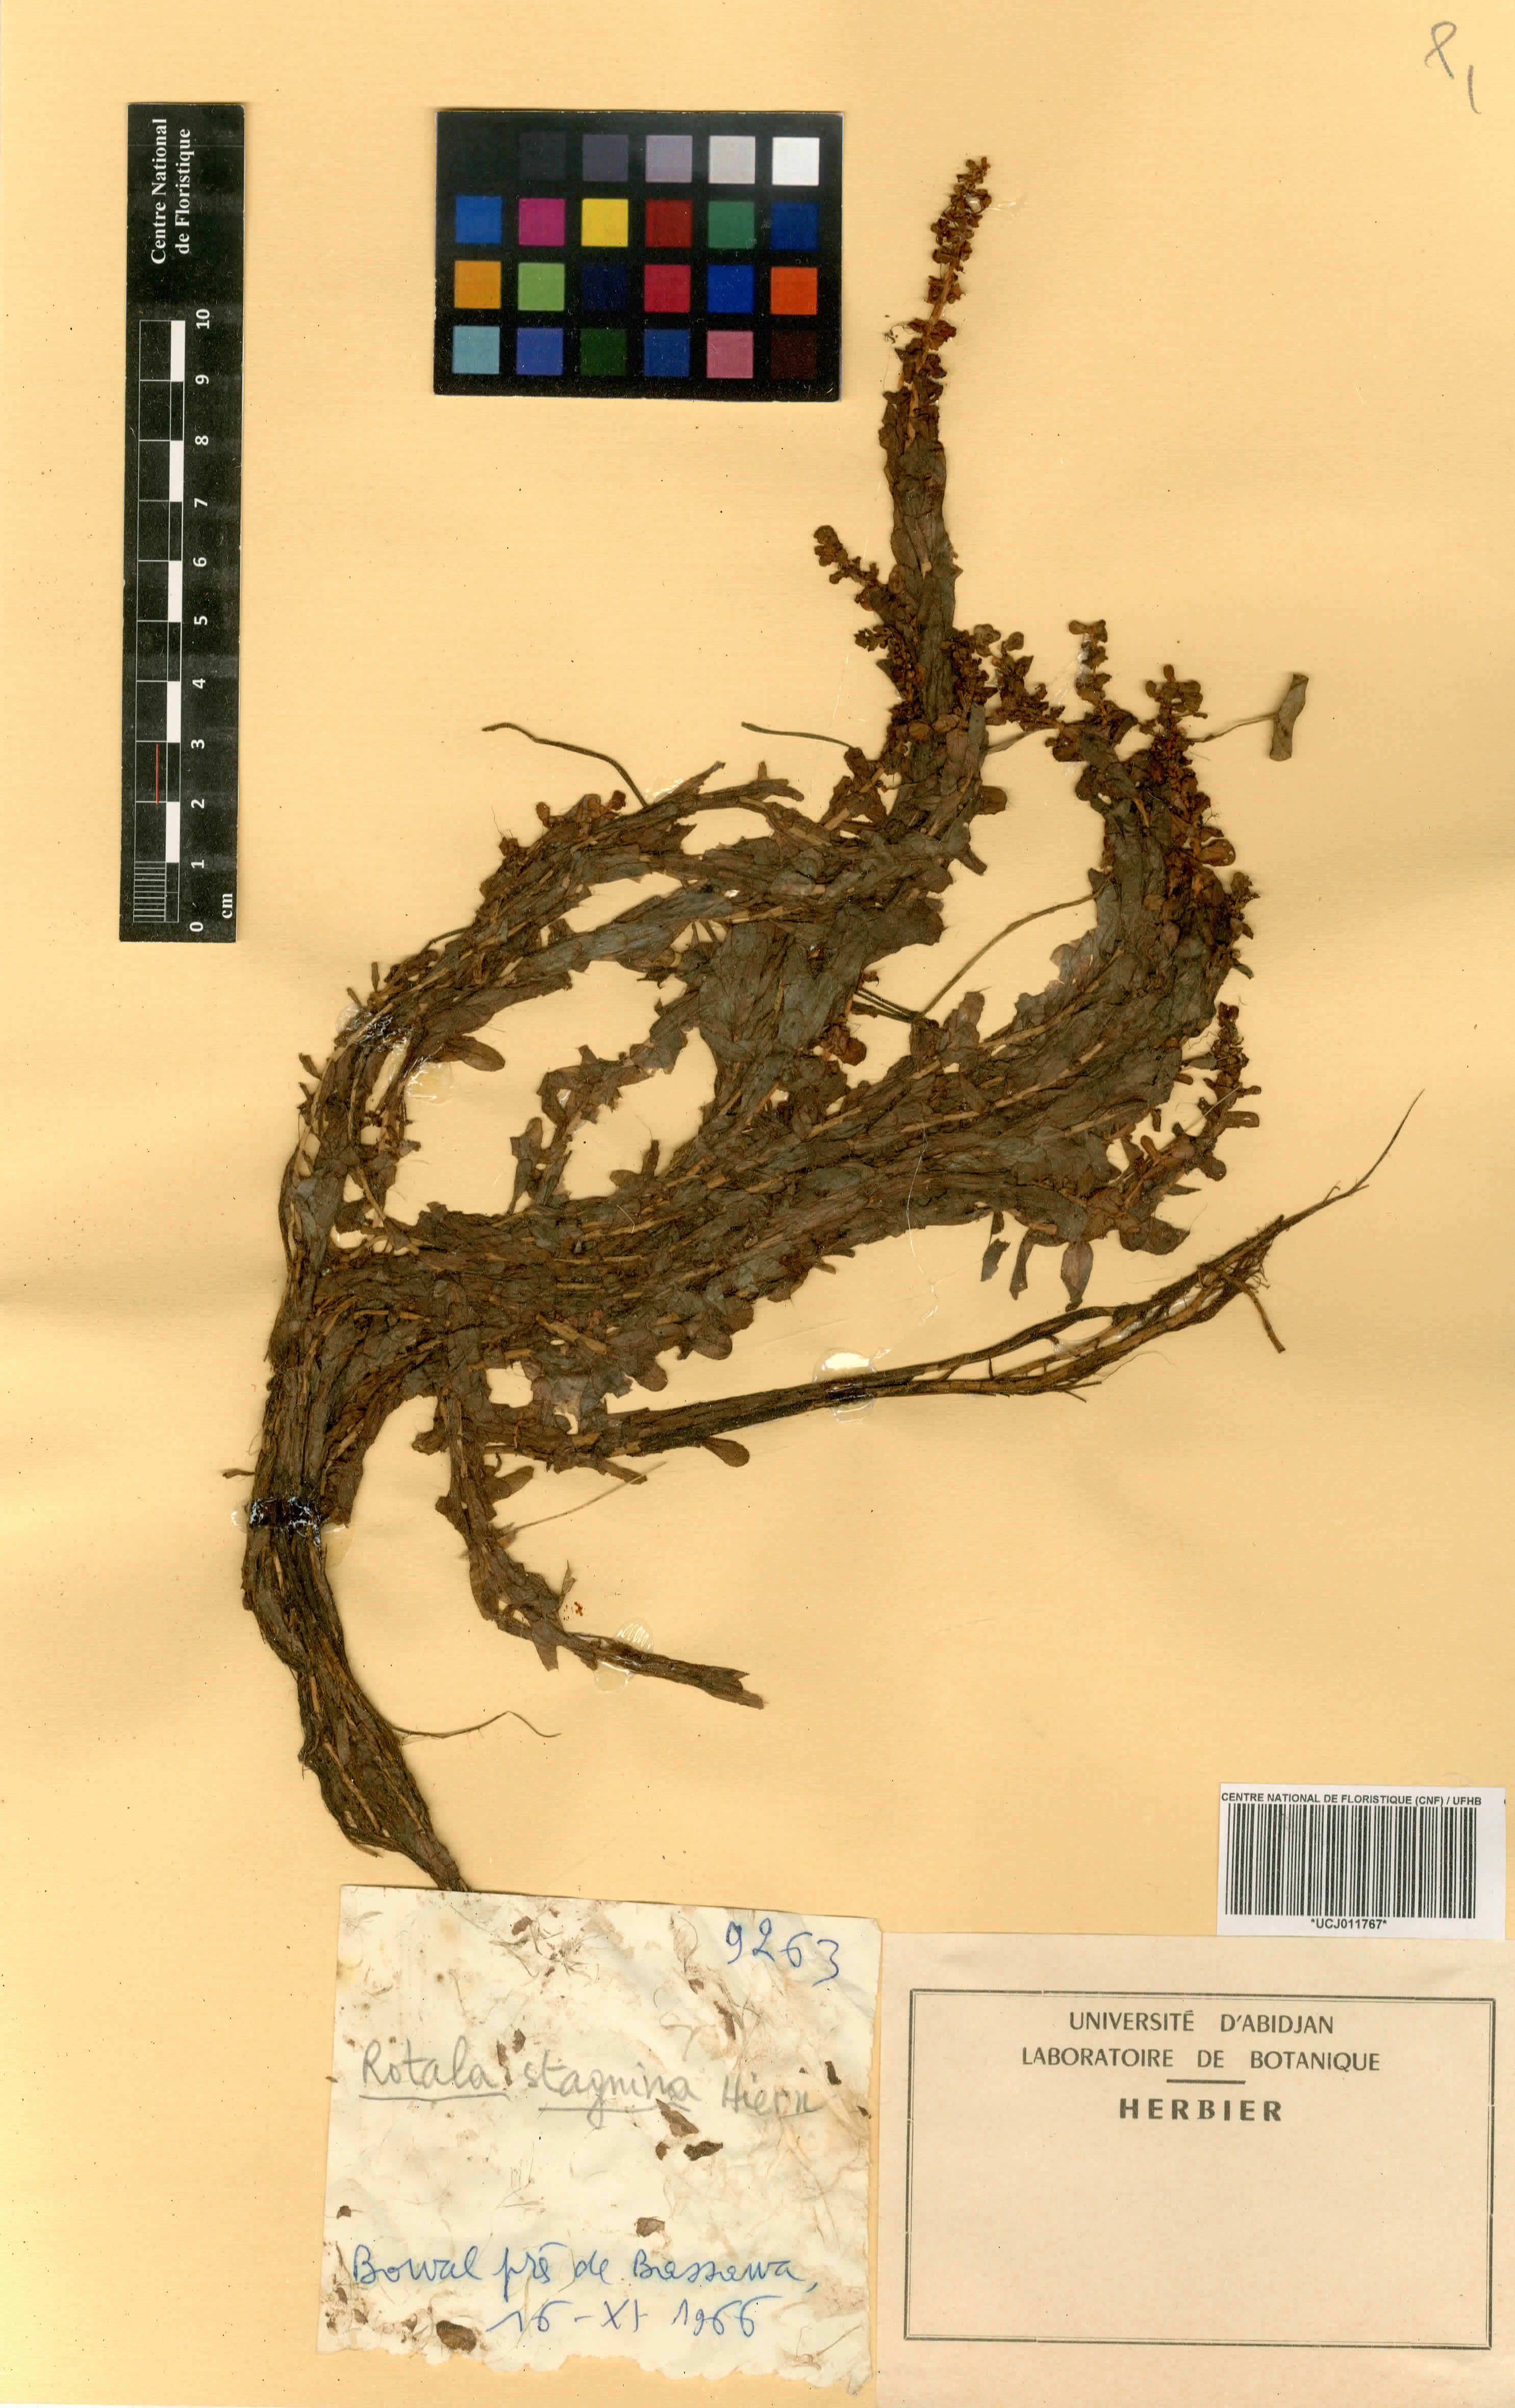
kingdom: Plantae
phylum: Tracheophyta
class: Magnoliopsida
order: Myrtales
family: Lythraceae
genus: Rotala
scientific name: Rotala stagnina
